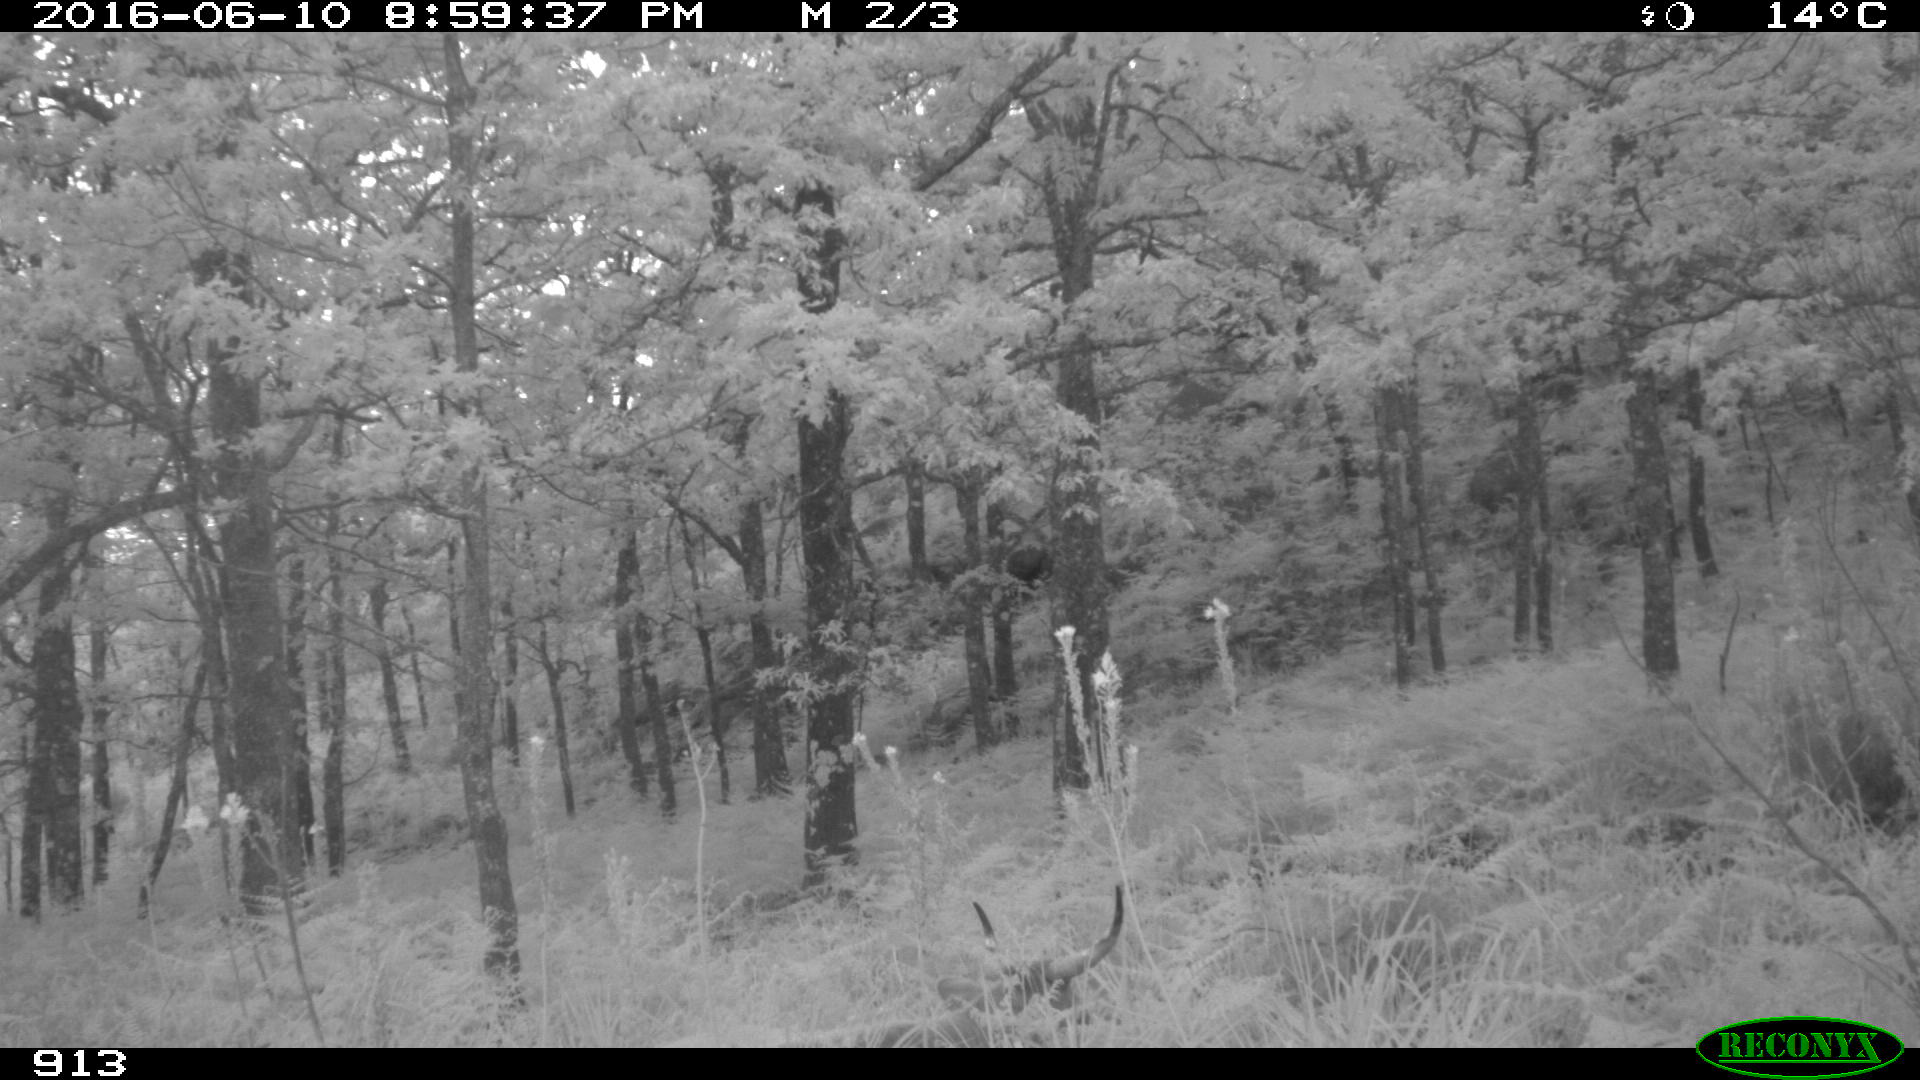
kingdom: Animalia
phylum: Chordata
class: Mammalia
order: Artiodactyla
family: Bovidae
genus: Bos
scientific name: Bos taurus
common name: Domesticated cattle
